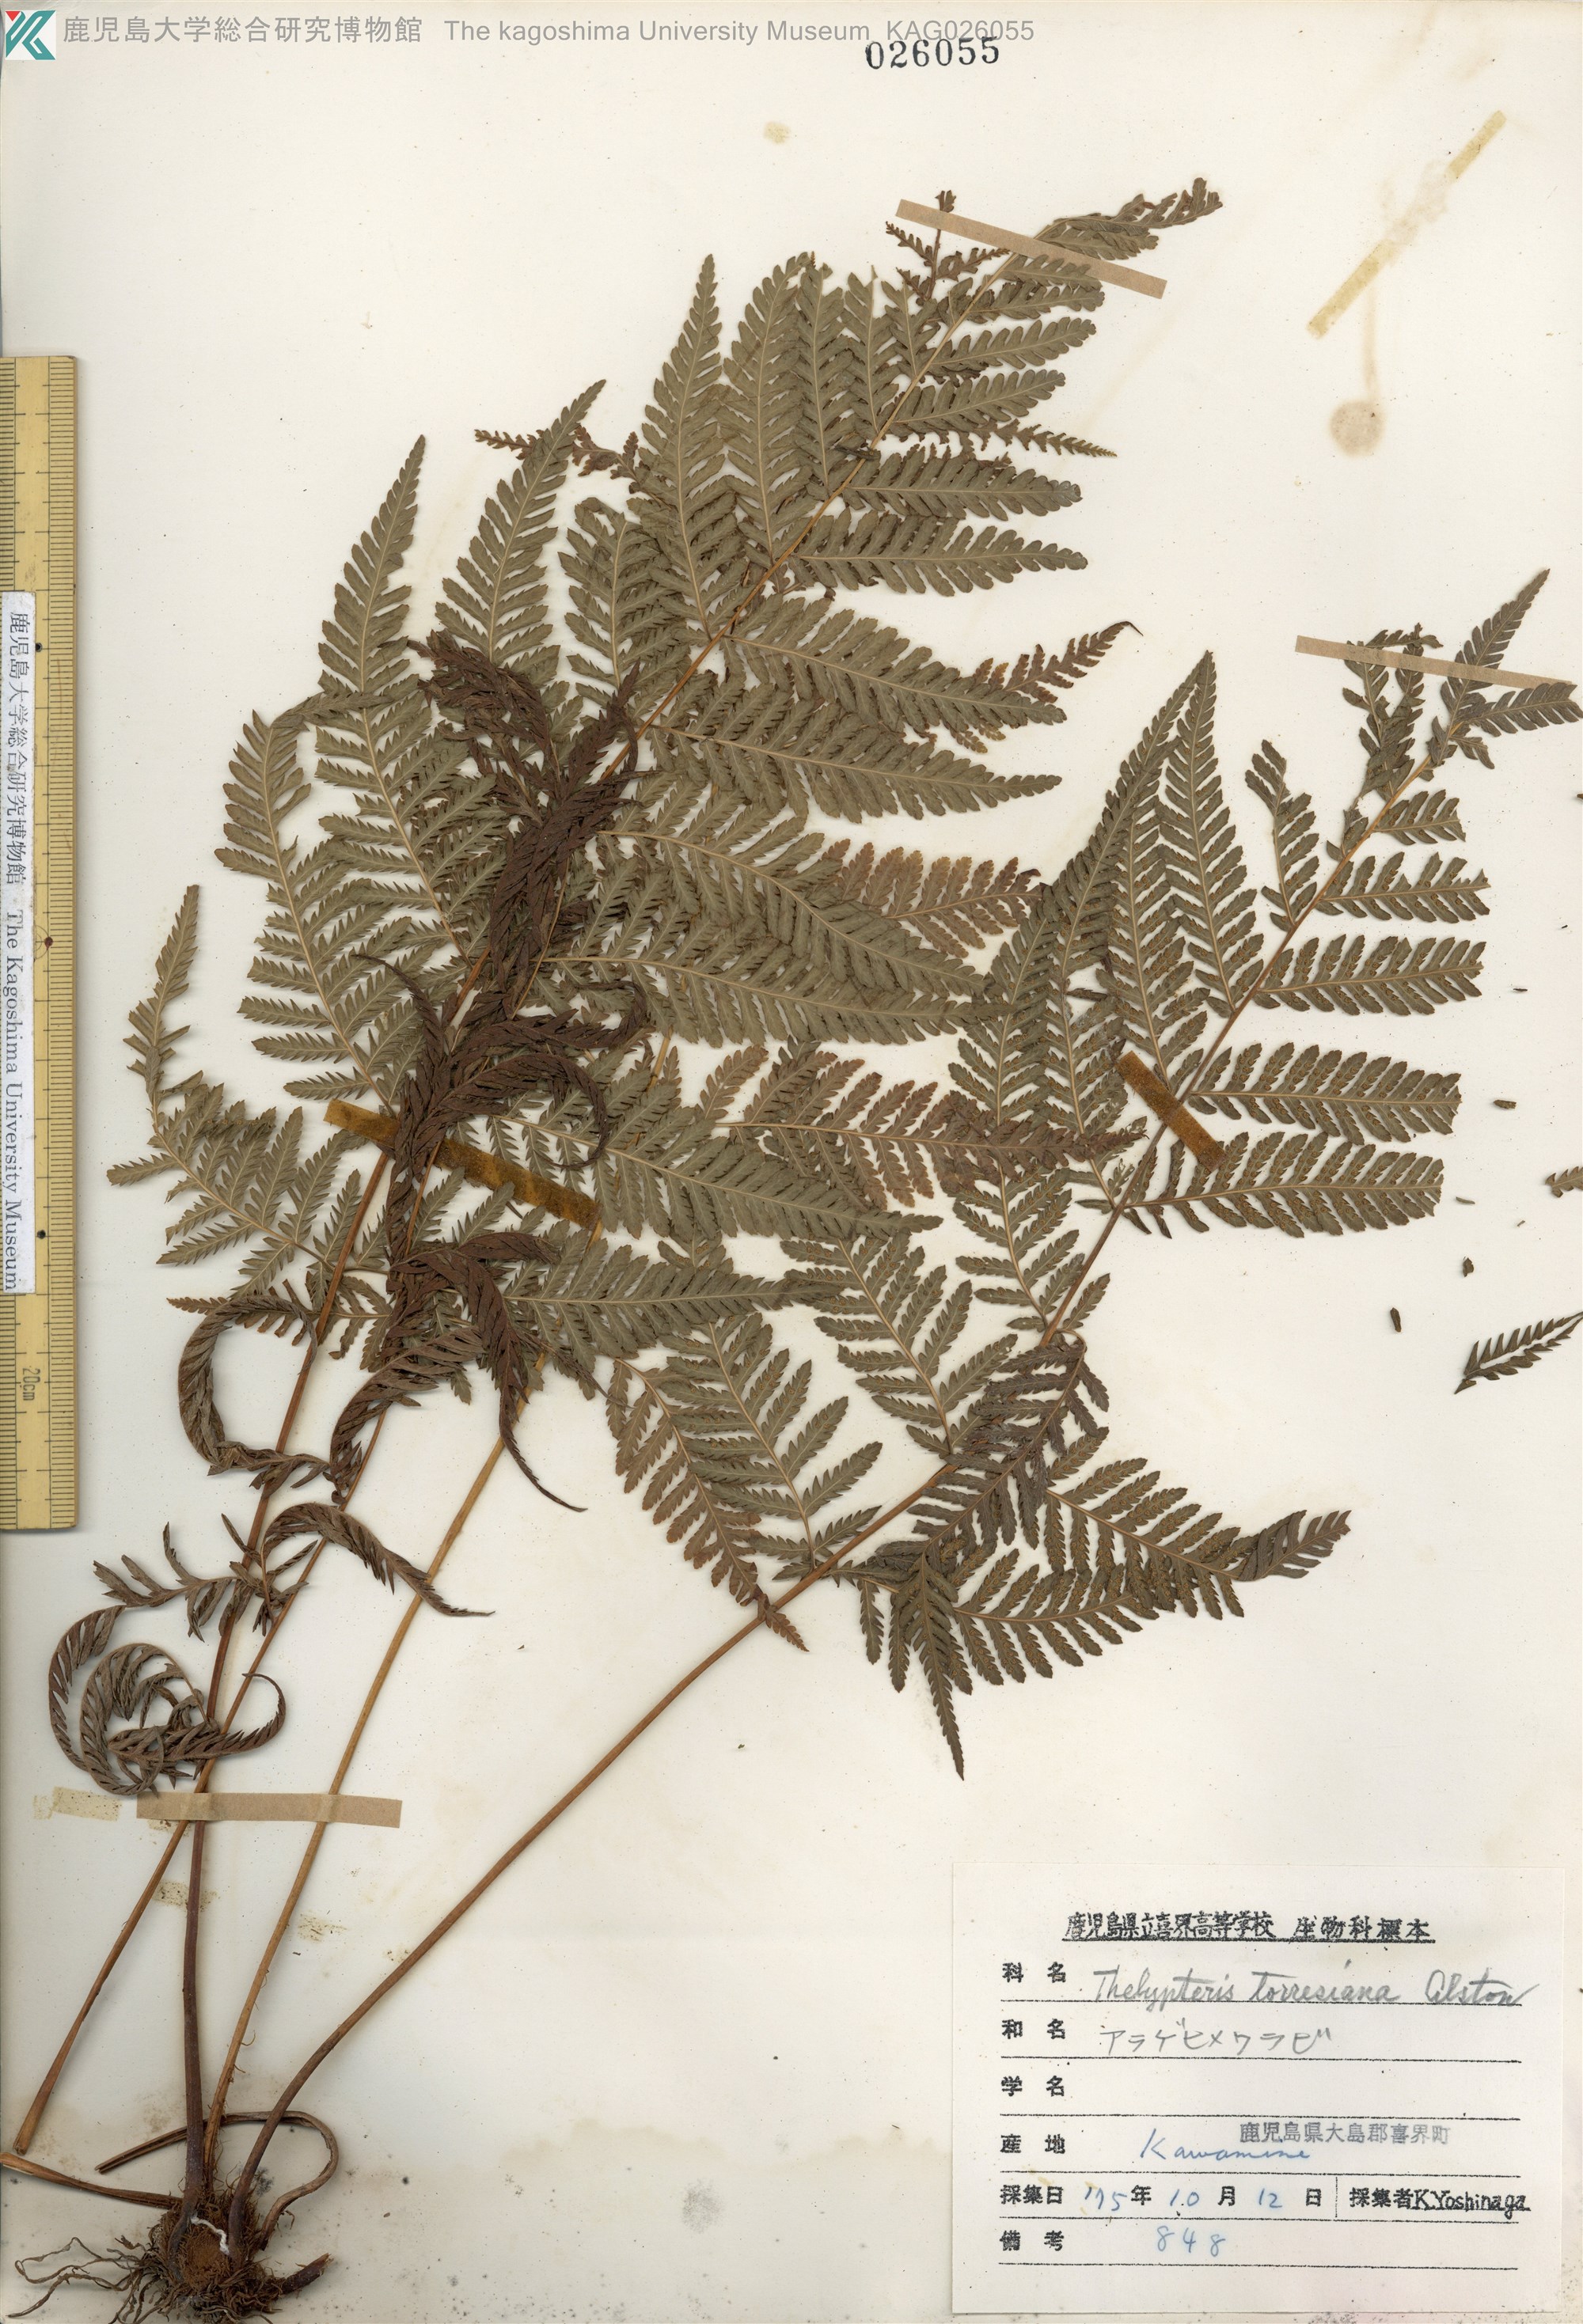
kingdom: Plantae
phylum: Tracheophyta
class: Polypodiopsida
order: Polypodiales
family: Thelypteridaceae
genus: Macrothelypteris
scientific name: Macrothelypteris torresiana
